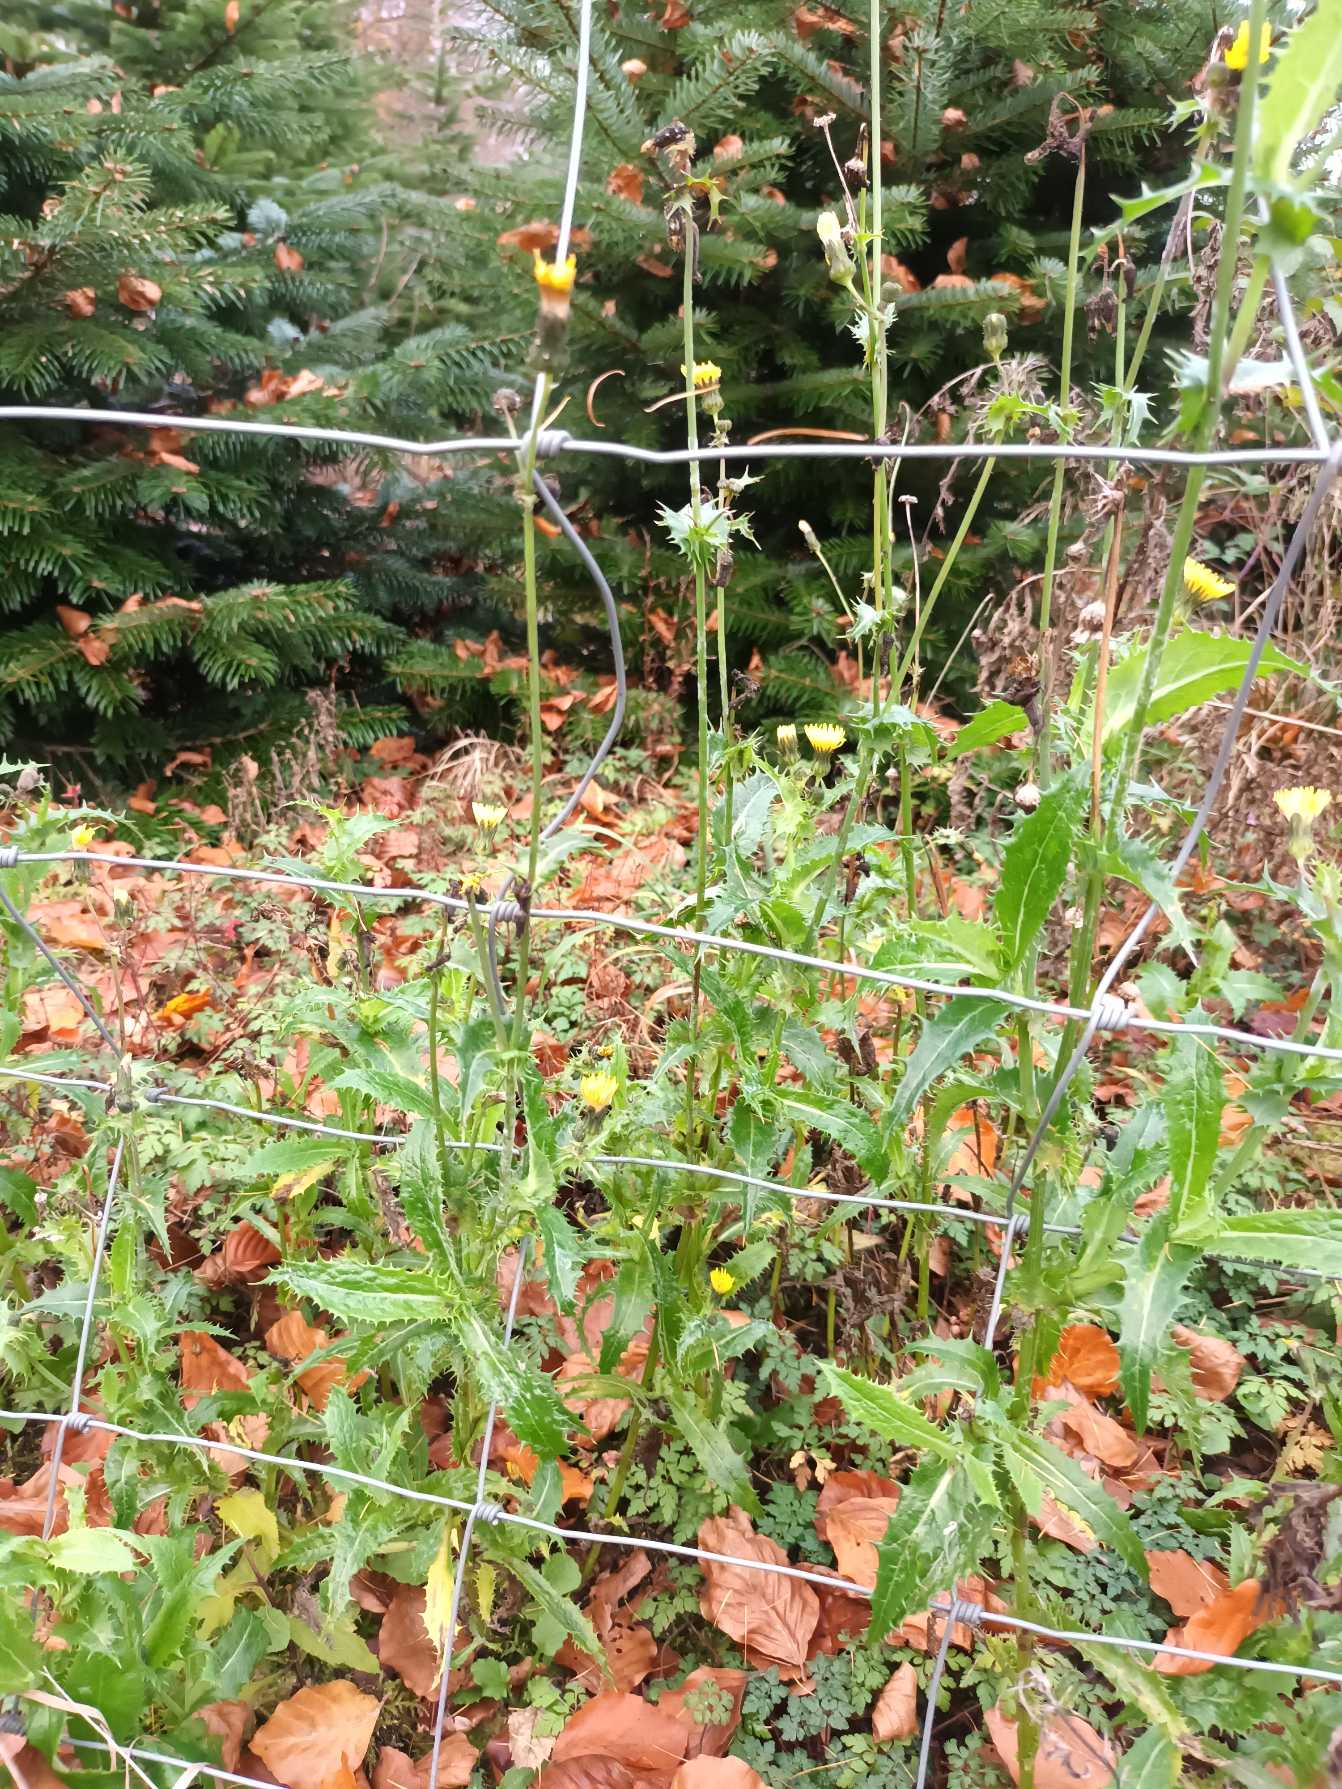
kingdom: Plantae
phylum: Tracheophyta
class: Magnoliopsida
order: Asterales
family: Asteraceae
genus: Sonchus
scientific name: Sonchus asper
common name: Ru svinemælk
